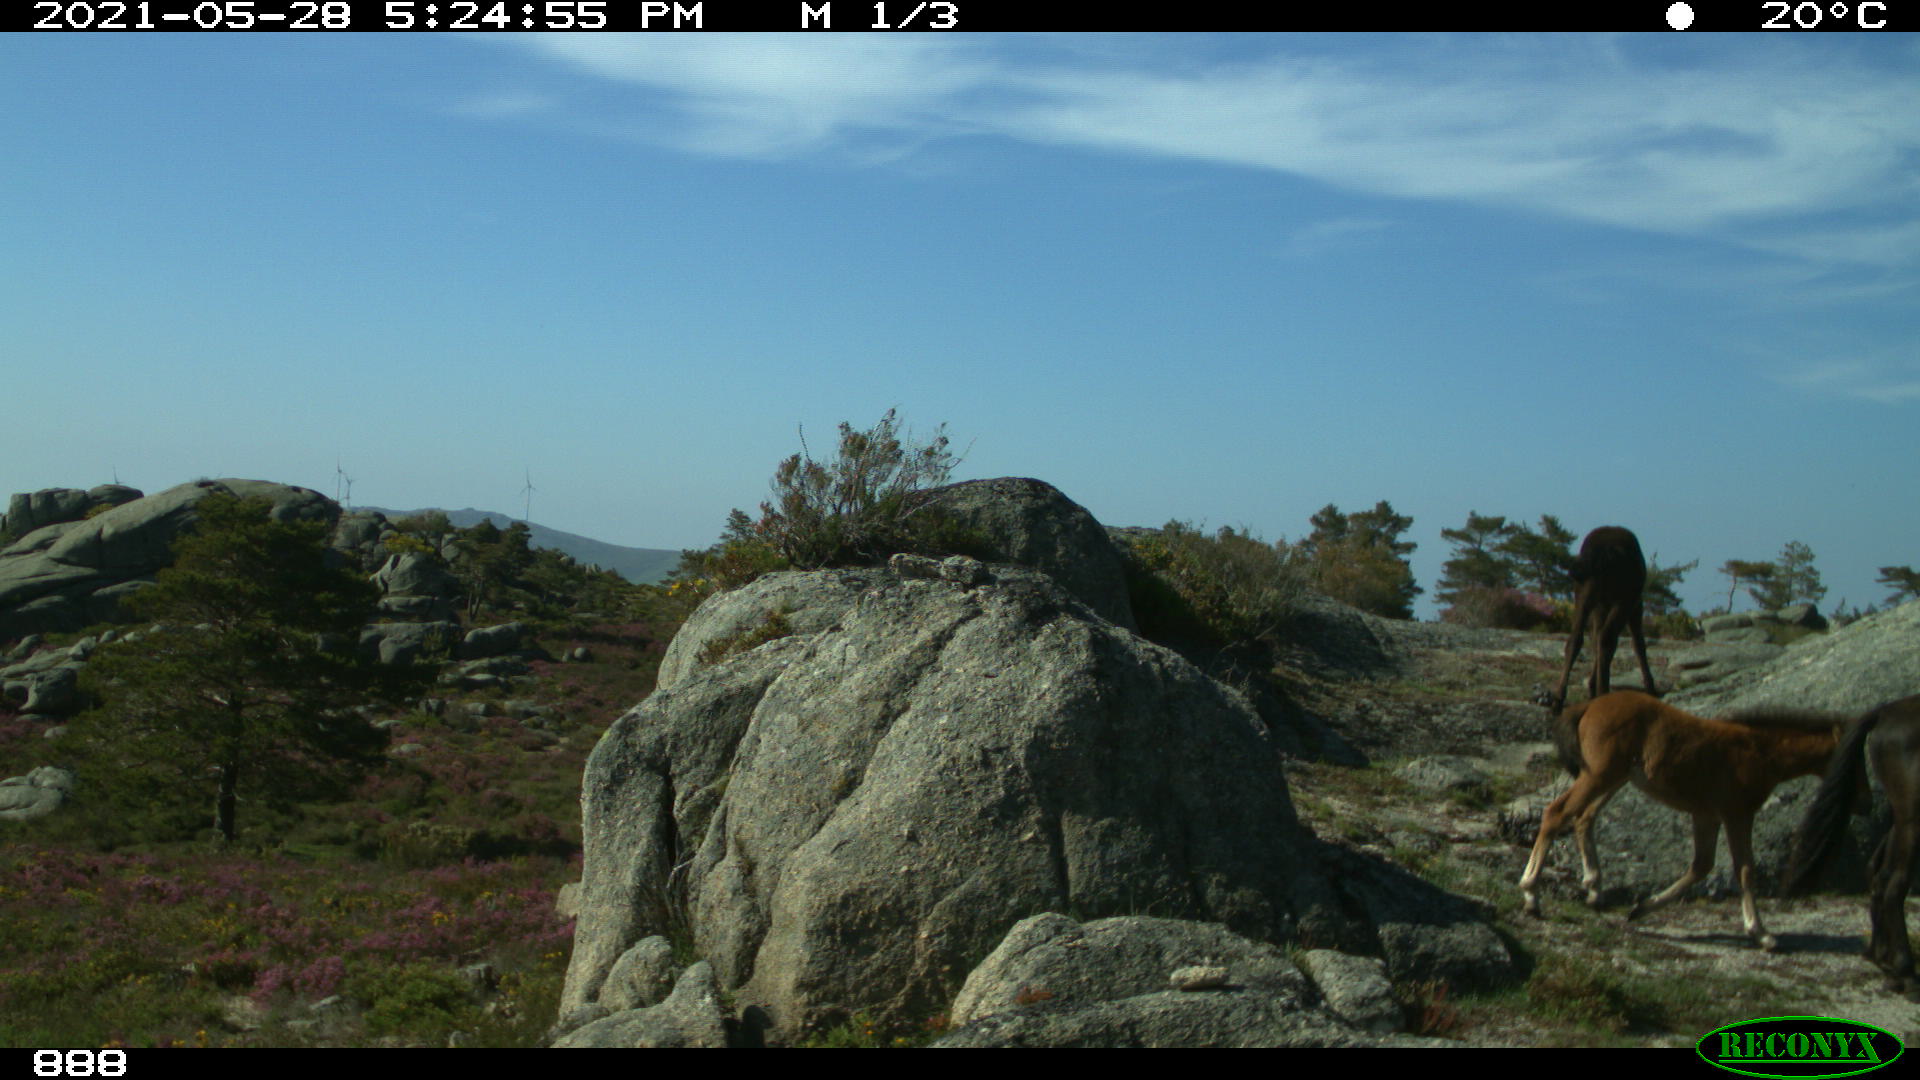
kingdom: Animalia
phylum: Chordata
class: Mammalia
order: Perissodactyla
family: Equidae
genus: Equus
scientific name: Equus caballus
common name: Horse
